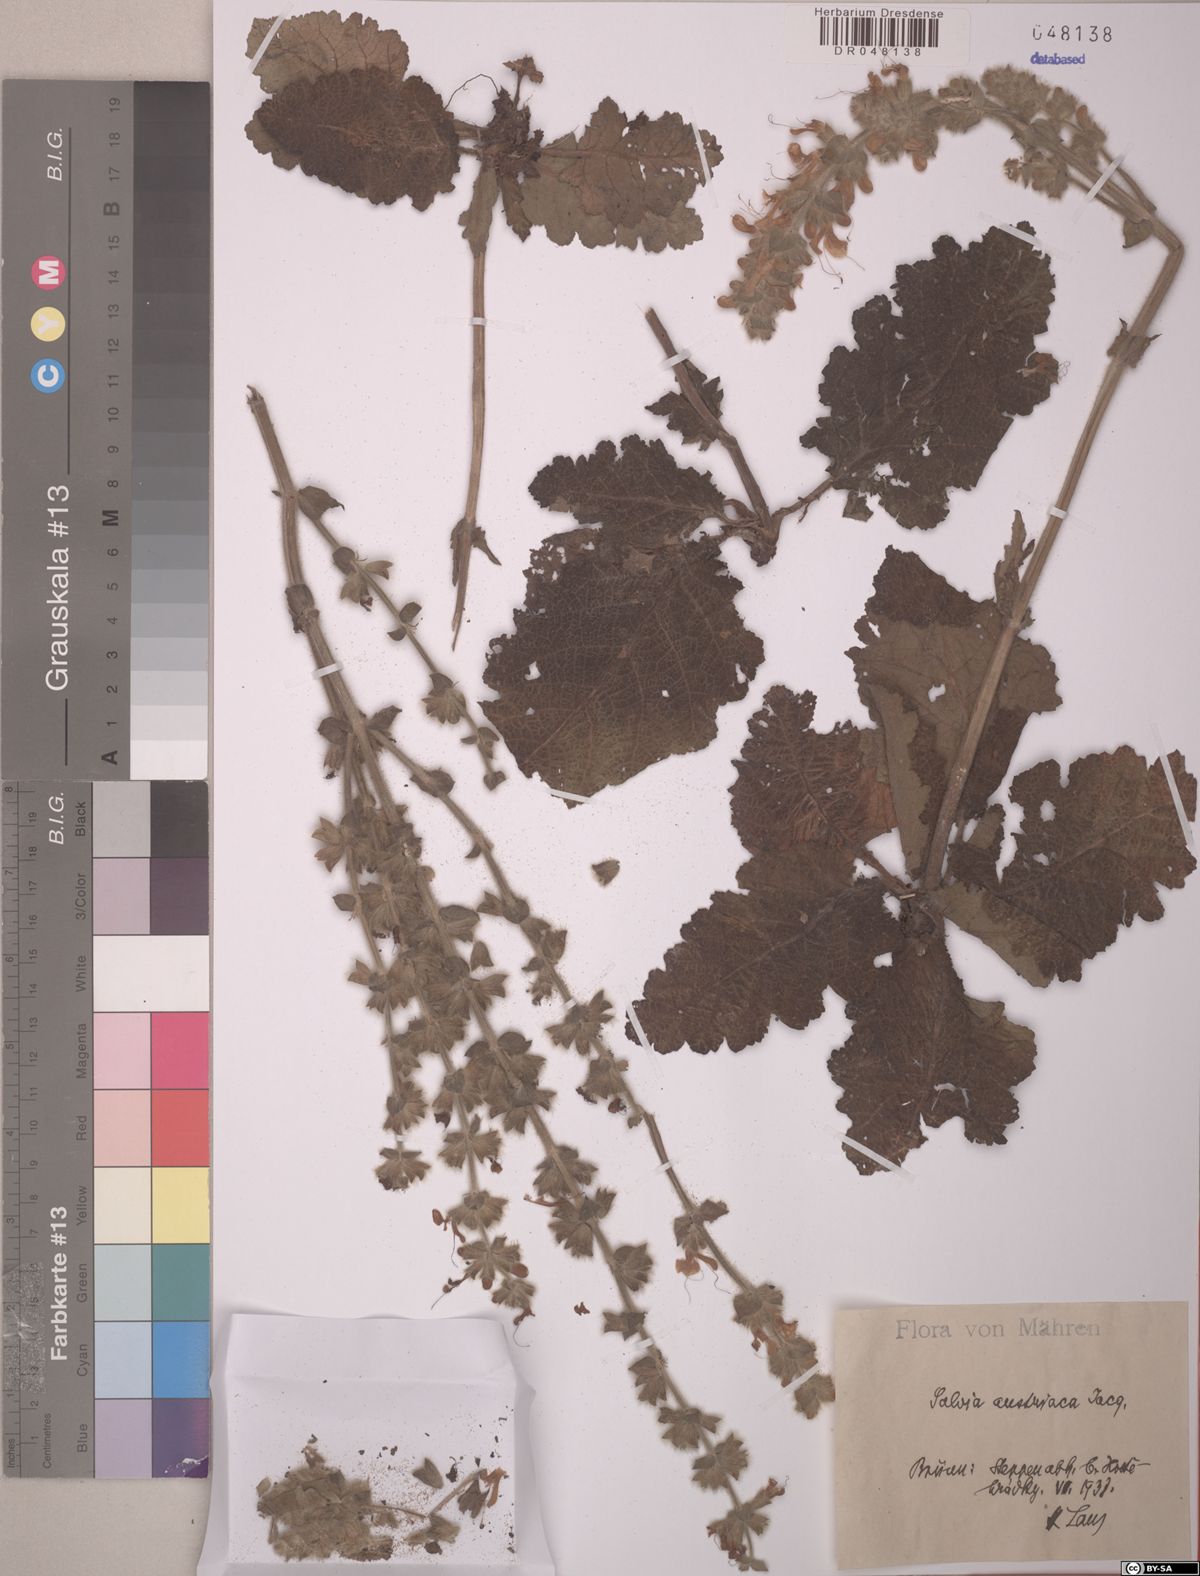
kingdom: Plantae
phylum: Tracheophyta
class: Magnoliopsida
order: Lamiales
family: Lamiaceae
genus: Salvia
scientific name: Salvia austriaca
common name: Austrian sage
